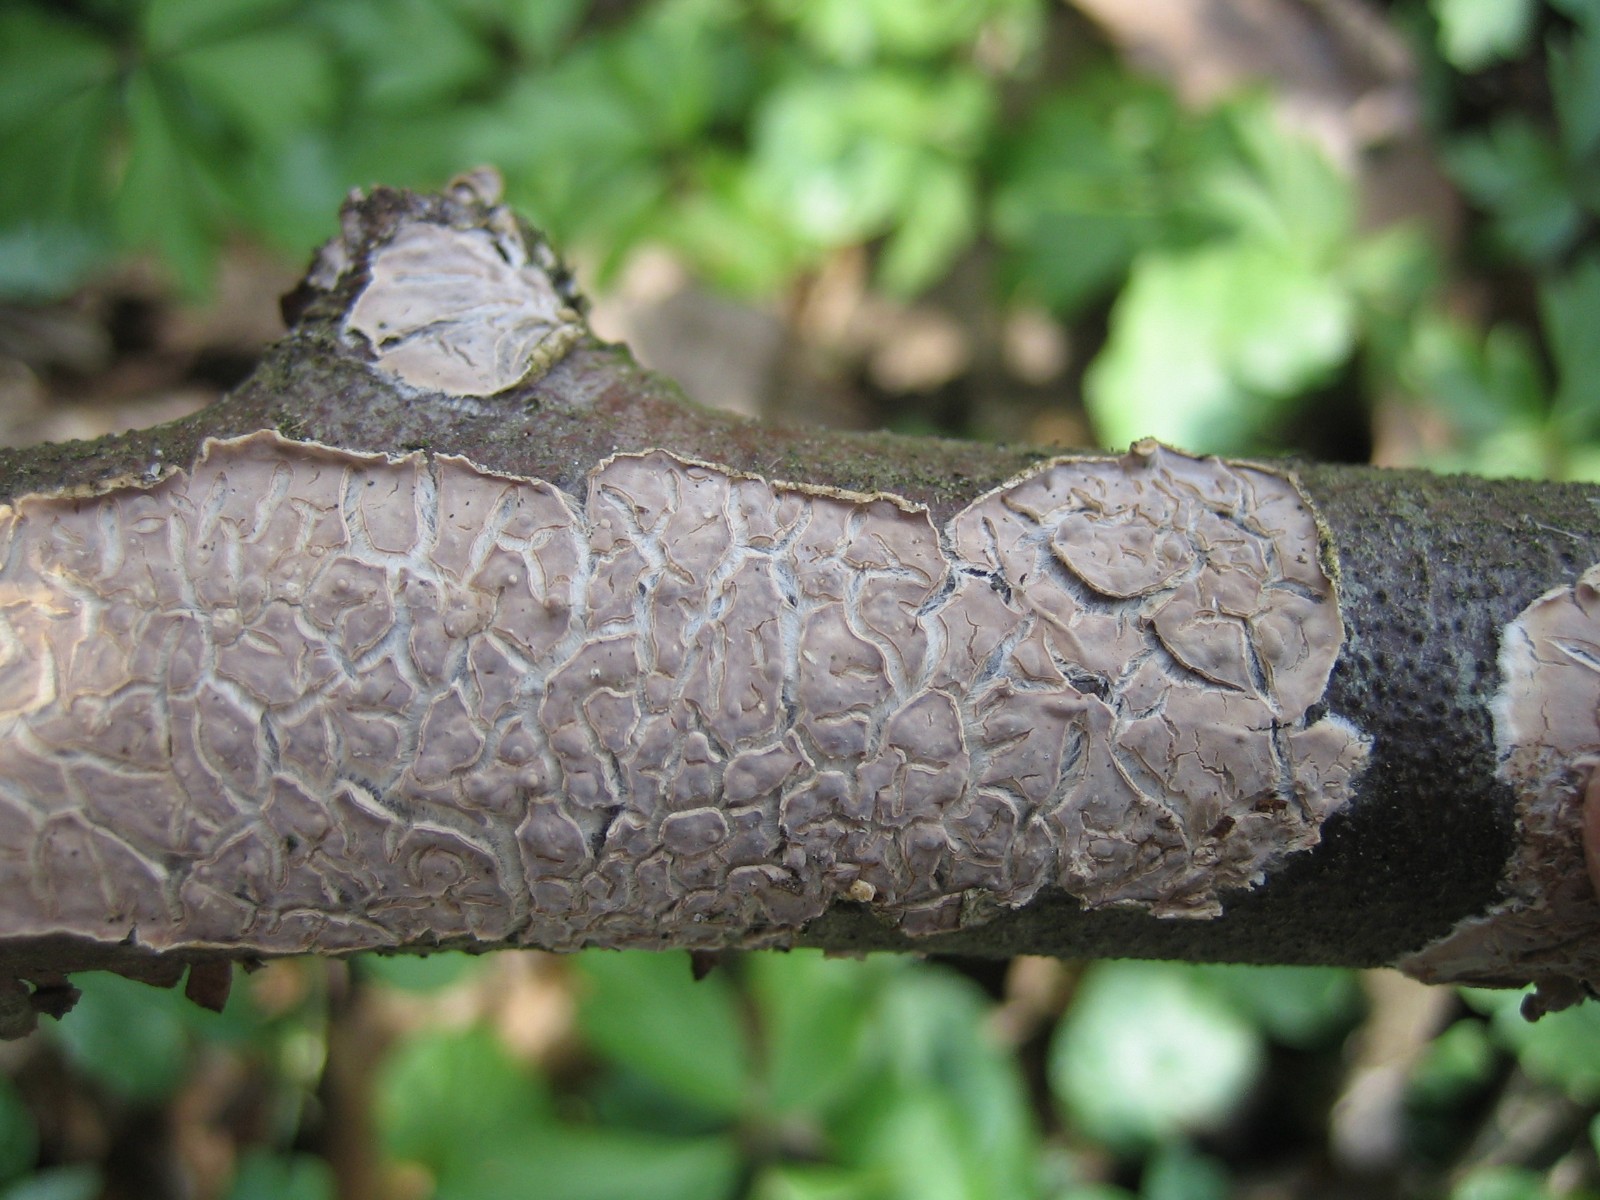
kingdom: Fungi
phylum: Basidiomycota
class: Agaricomycetes
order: Agaricales
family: Physalacriaceae
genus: Cylindrobasidium
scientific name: Cylindrobasidium evolvens
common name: sprækkehinde
